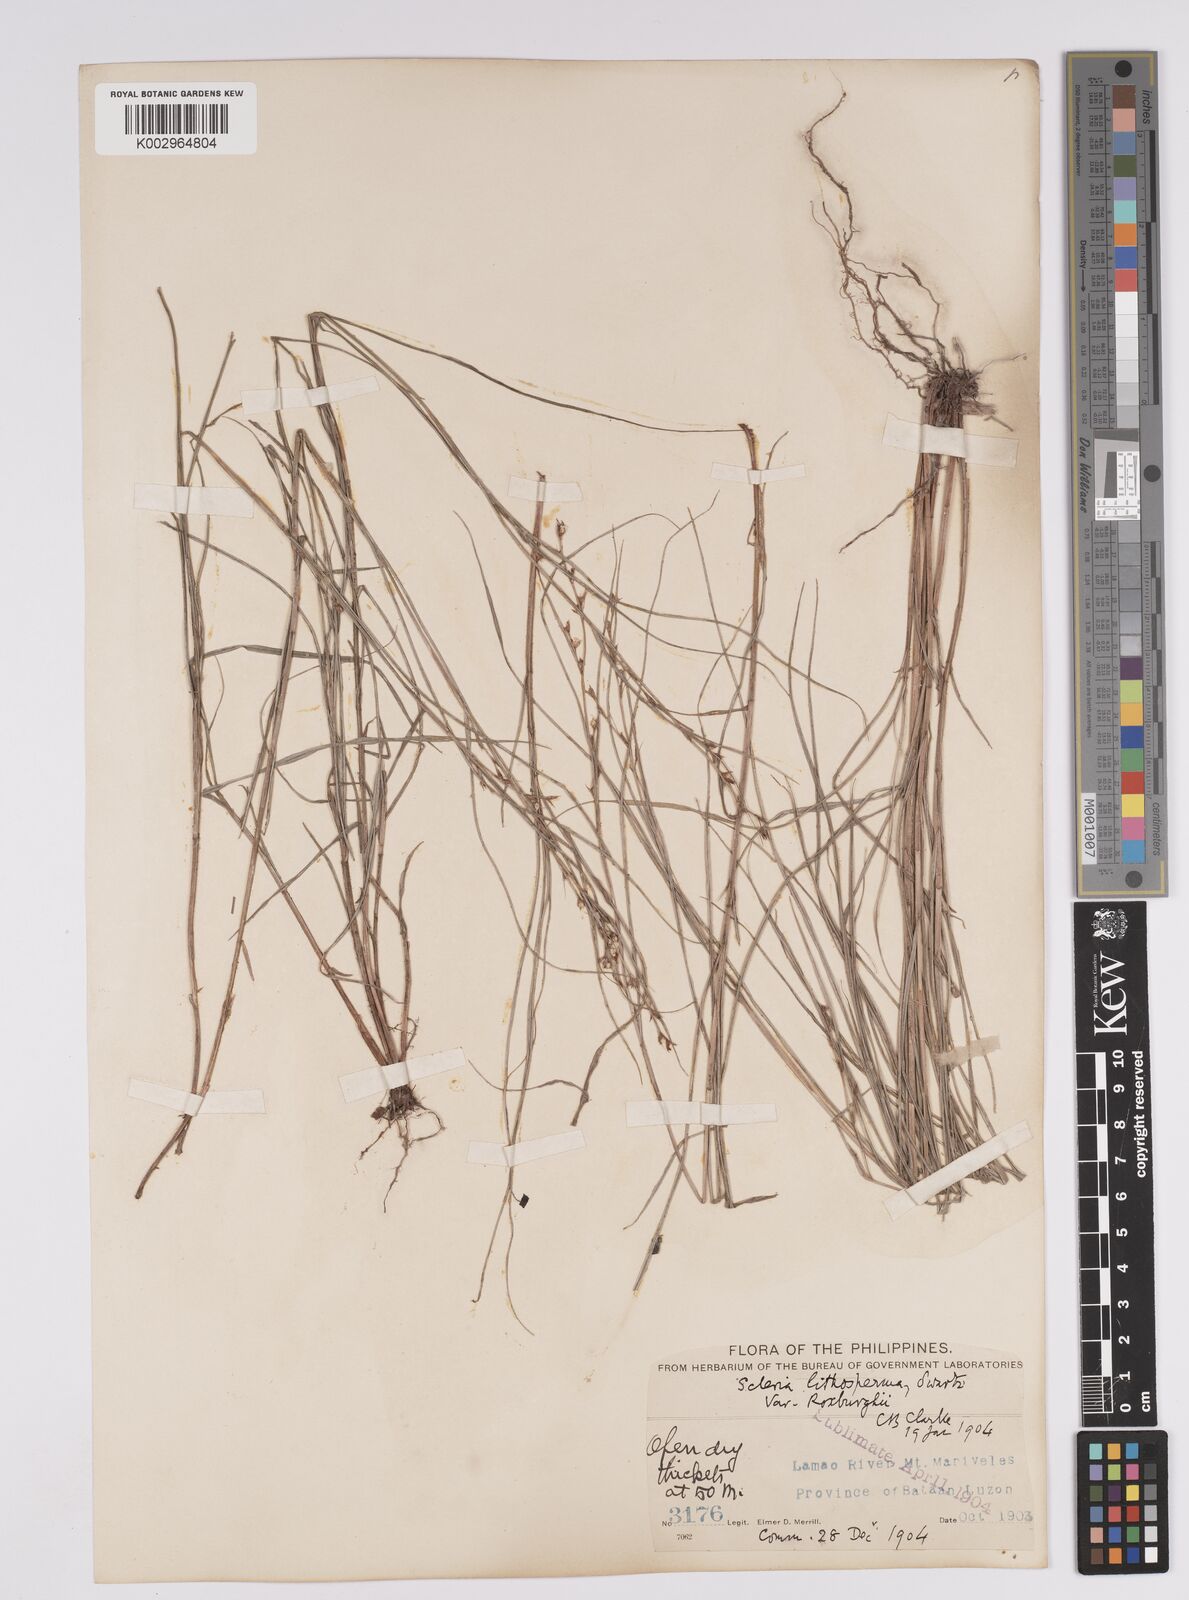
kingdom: Plantae
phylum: Tracheophyta
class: Liliopsida
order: Poales
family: Cyperaceae
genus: Scleria
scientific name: Scleria lithosperma
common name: Florida keys nut-rush
